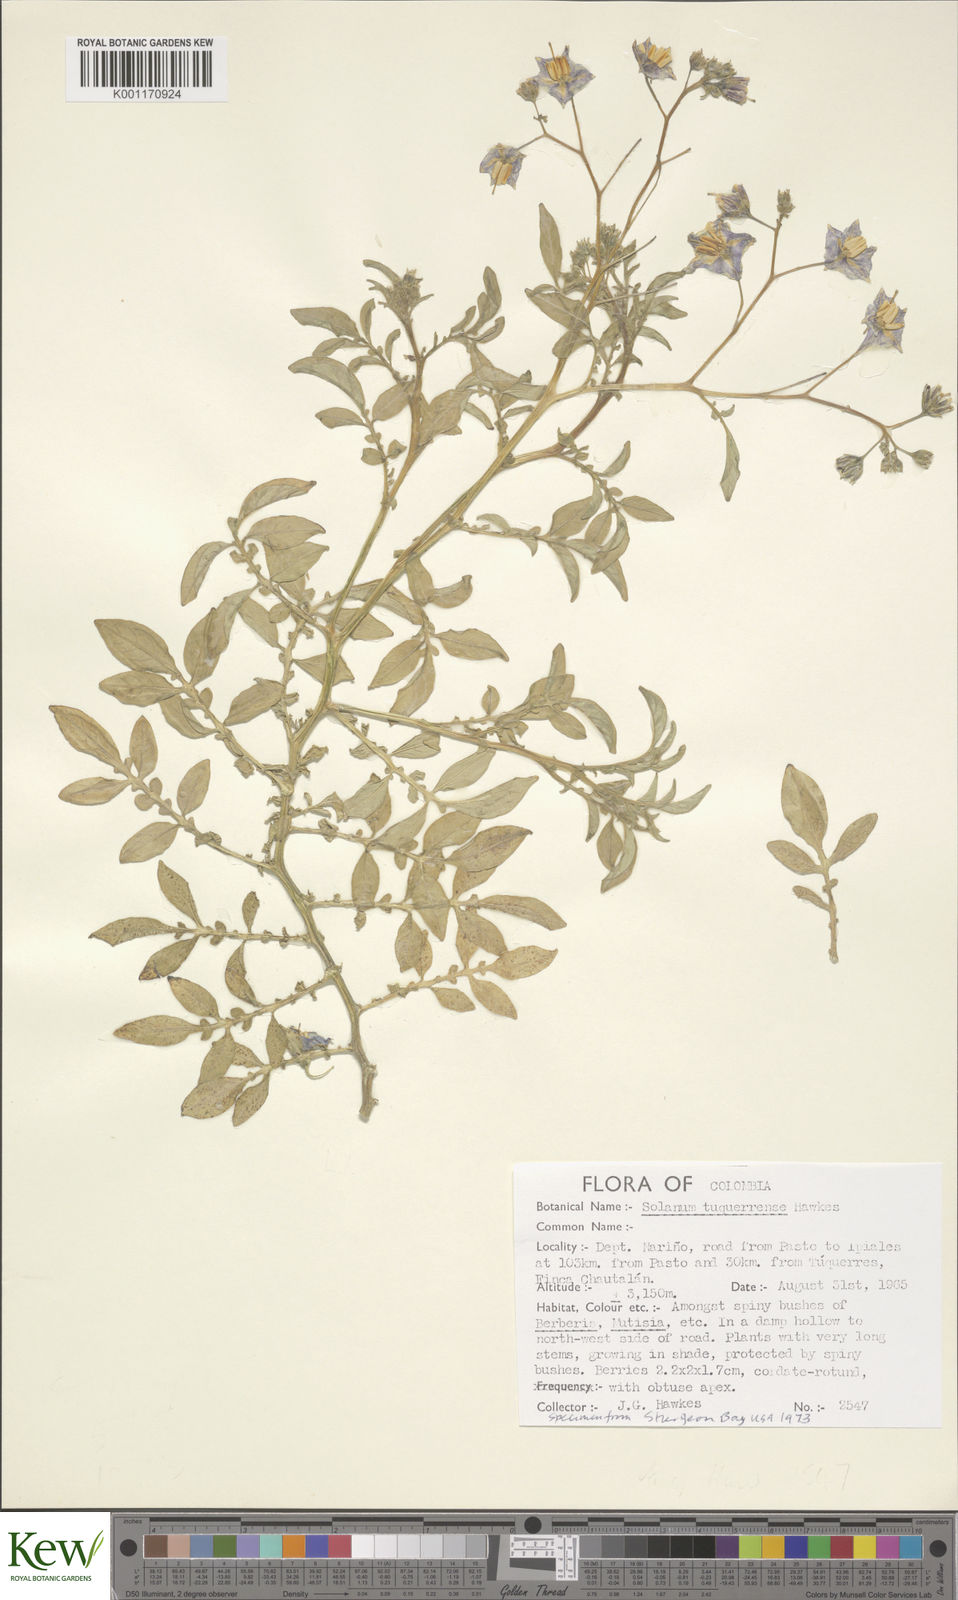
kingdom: Plantae
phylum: Tracheophyta
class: Magnoliopsida
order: Solanales
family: Solanaceae
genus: Solanum
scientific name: Solanum andreanum
